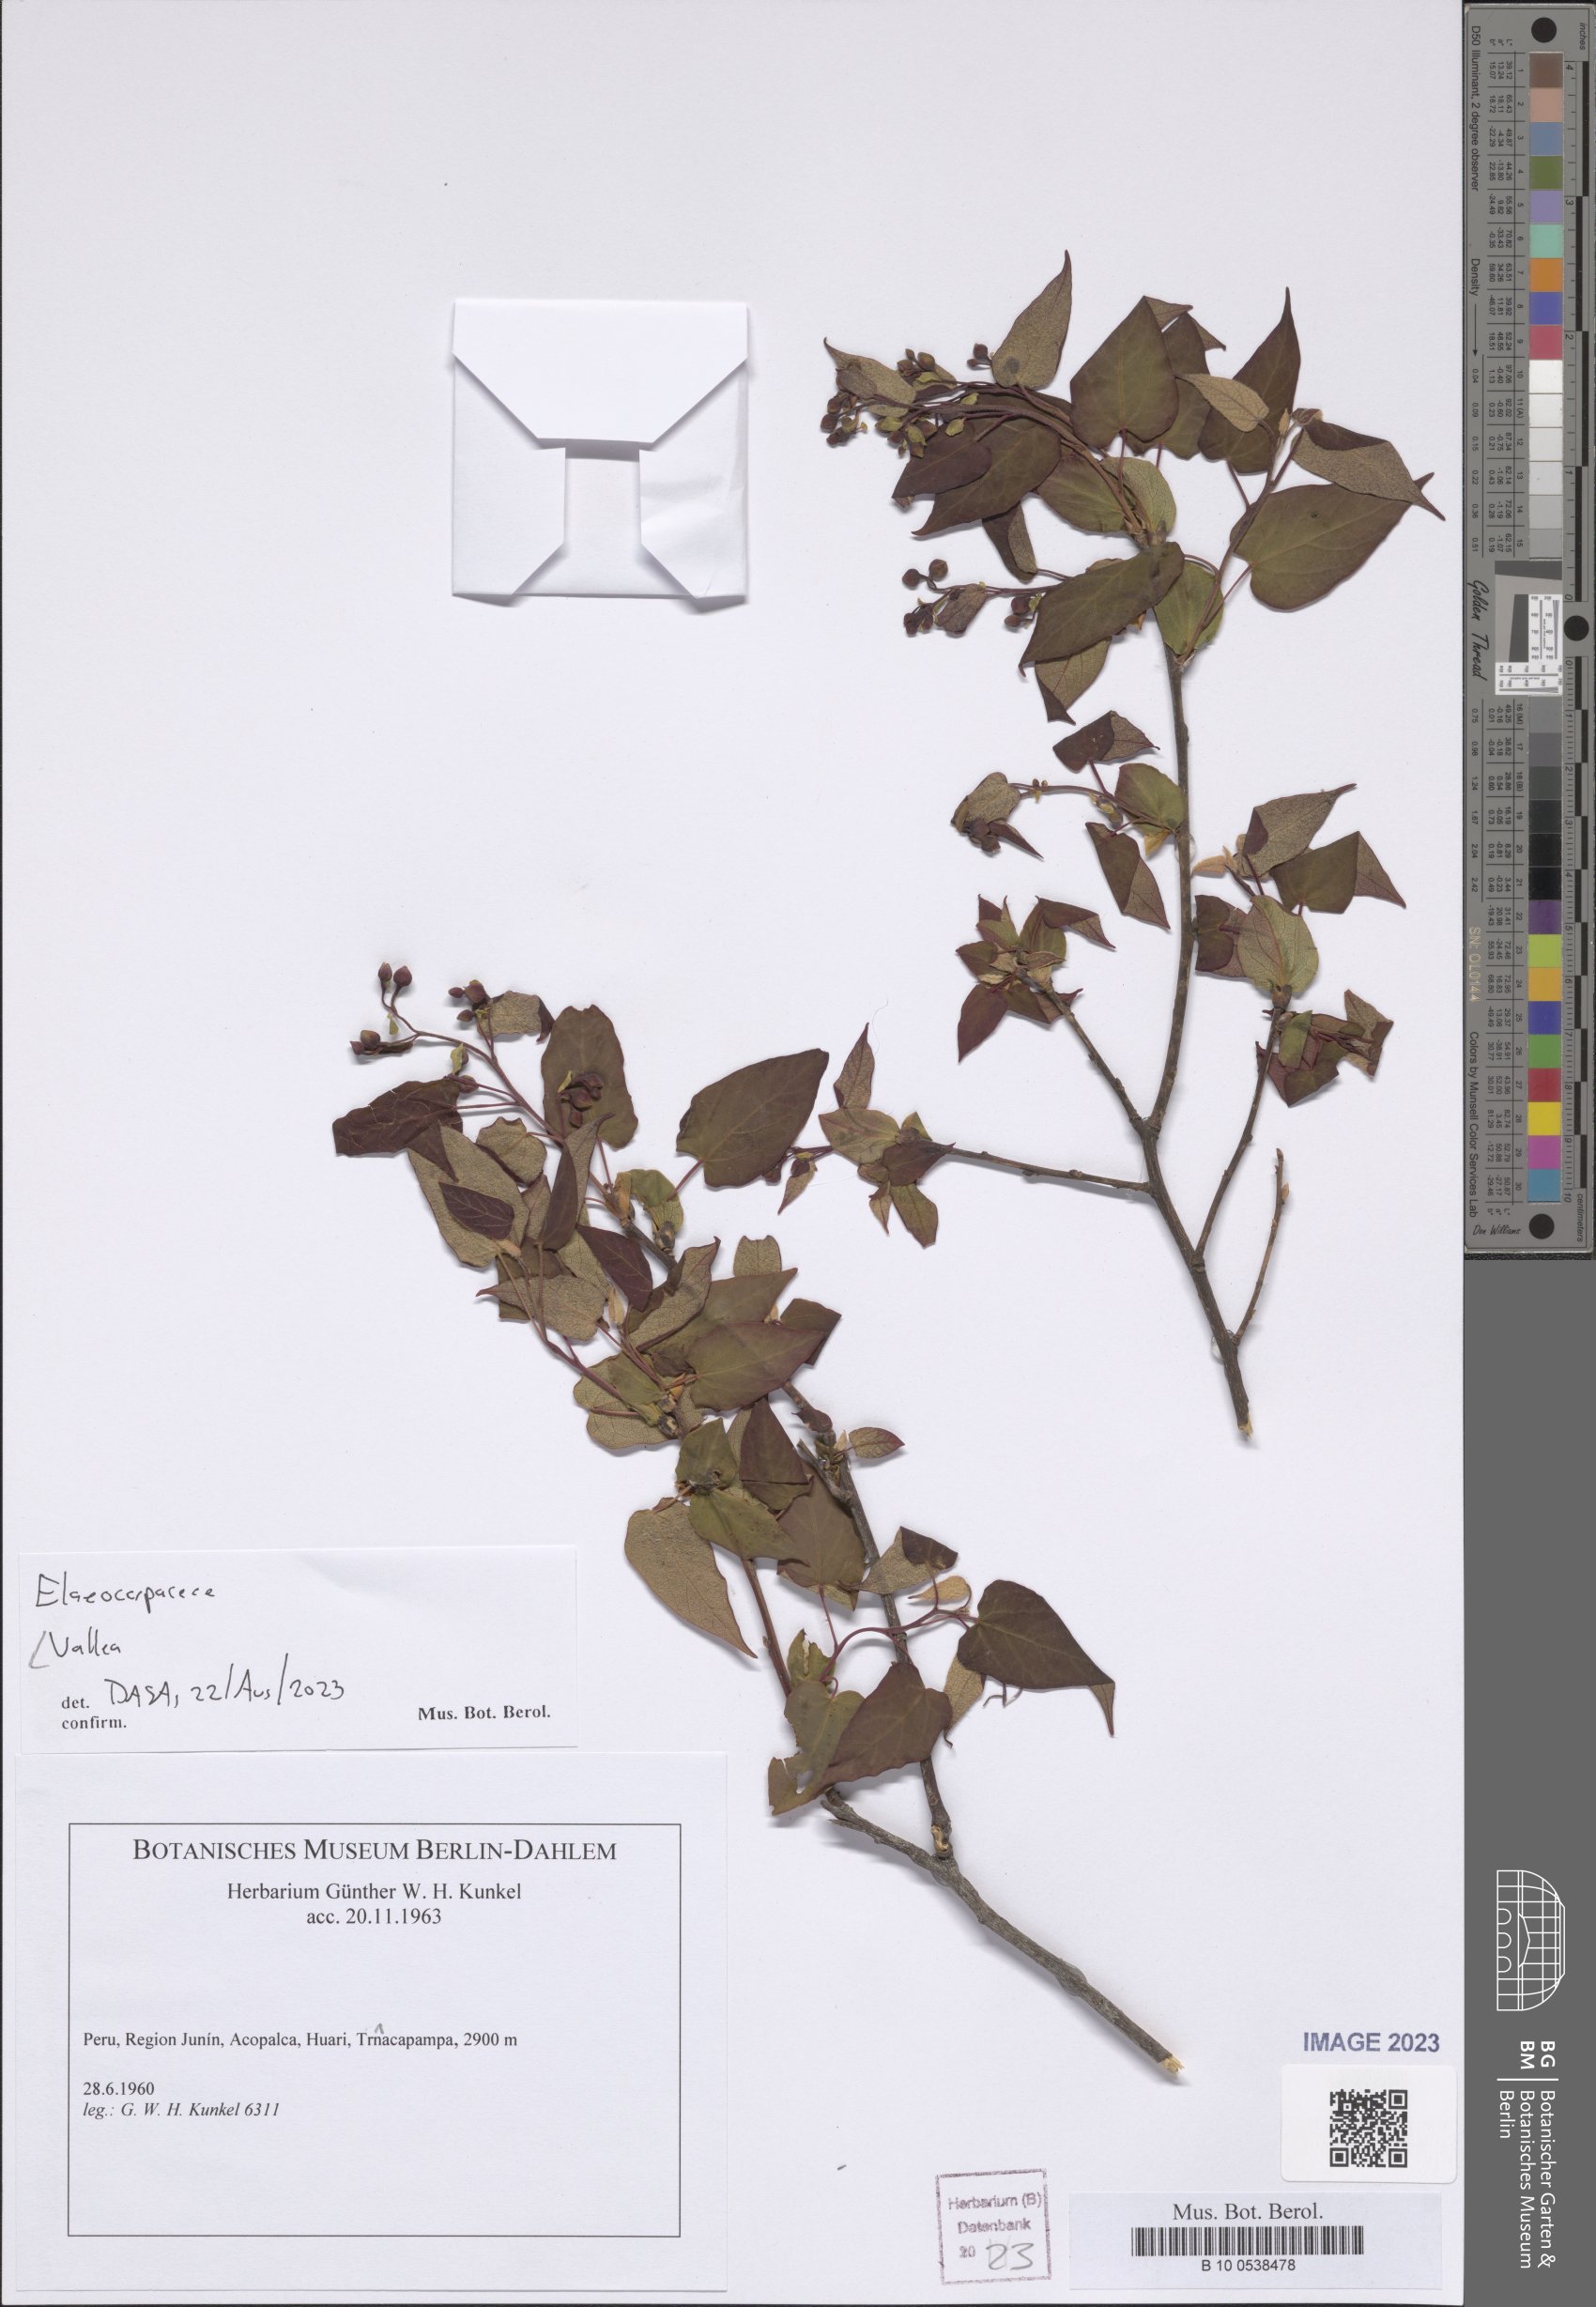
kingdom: Plantae
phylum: Tracheophyta
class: Magnoliopsida
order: Oxalidales
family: Elaeocarpaceae
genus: Vallea
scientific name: Vallea
